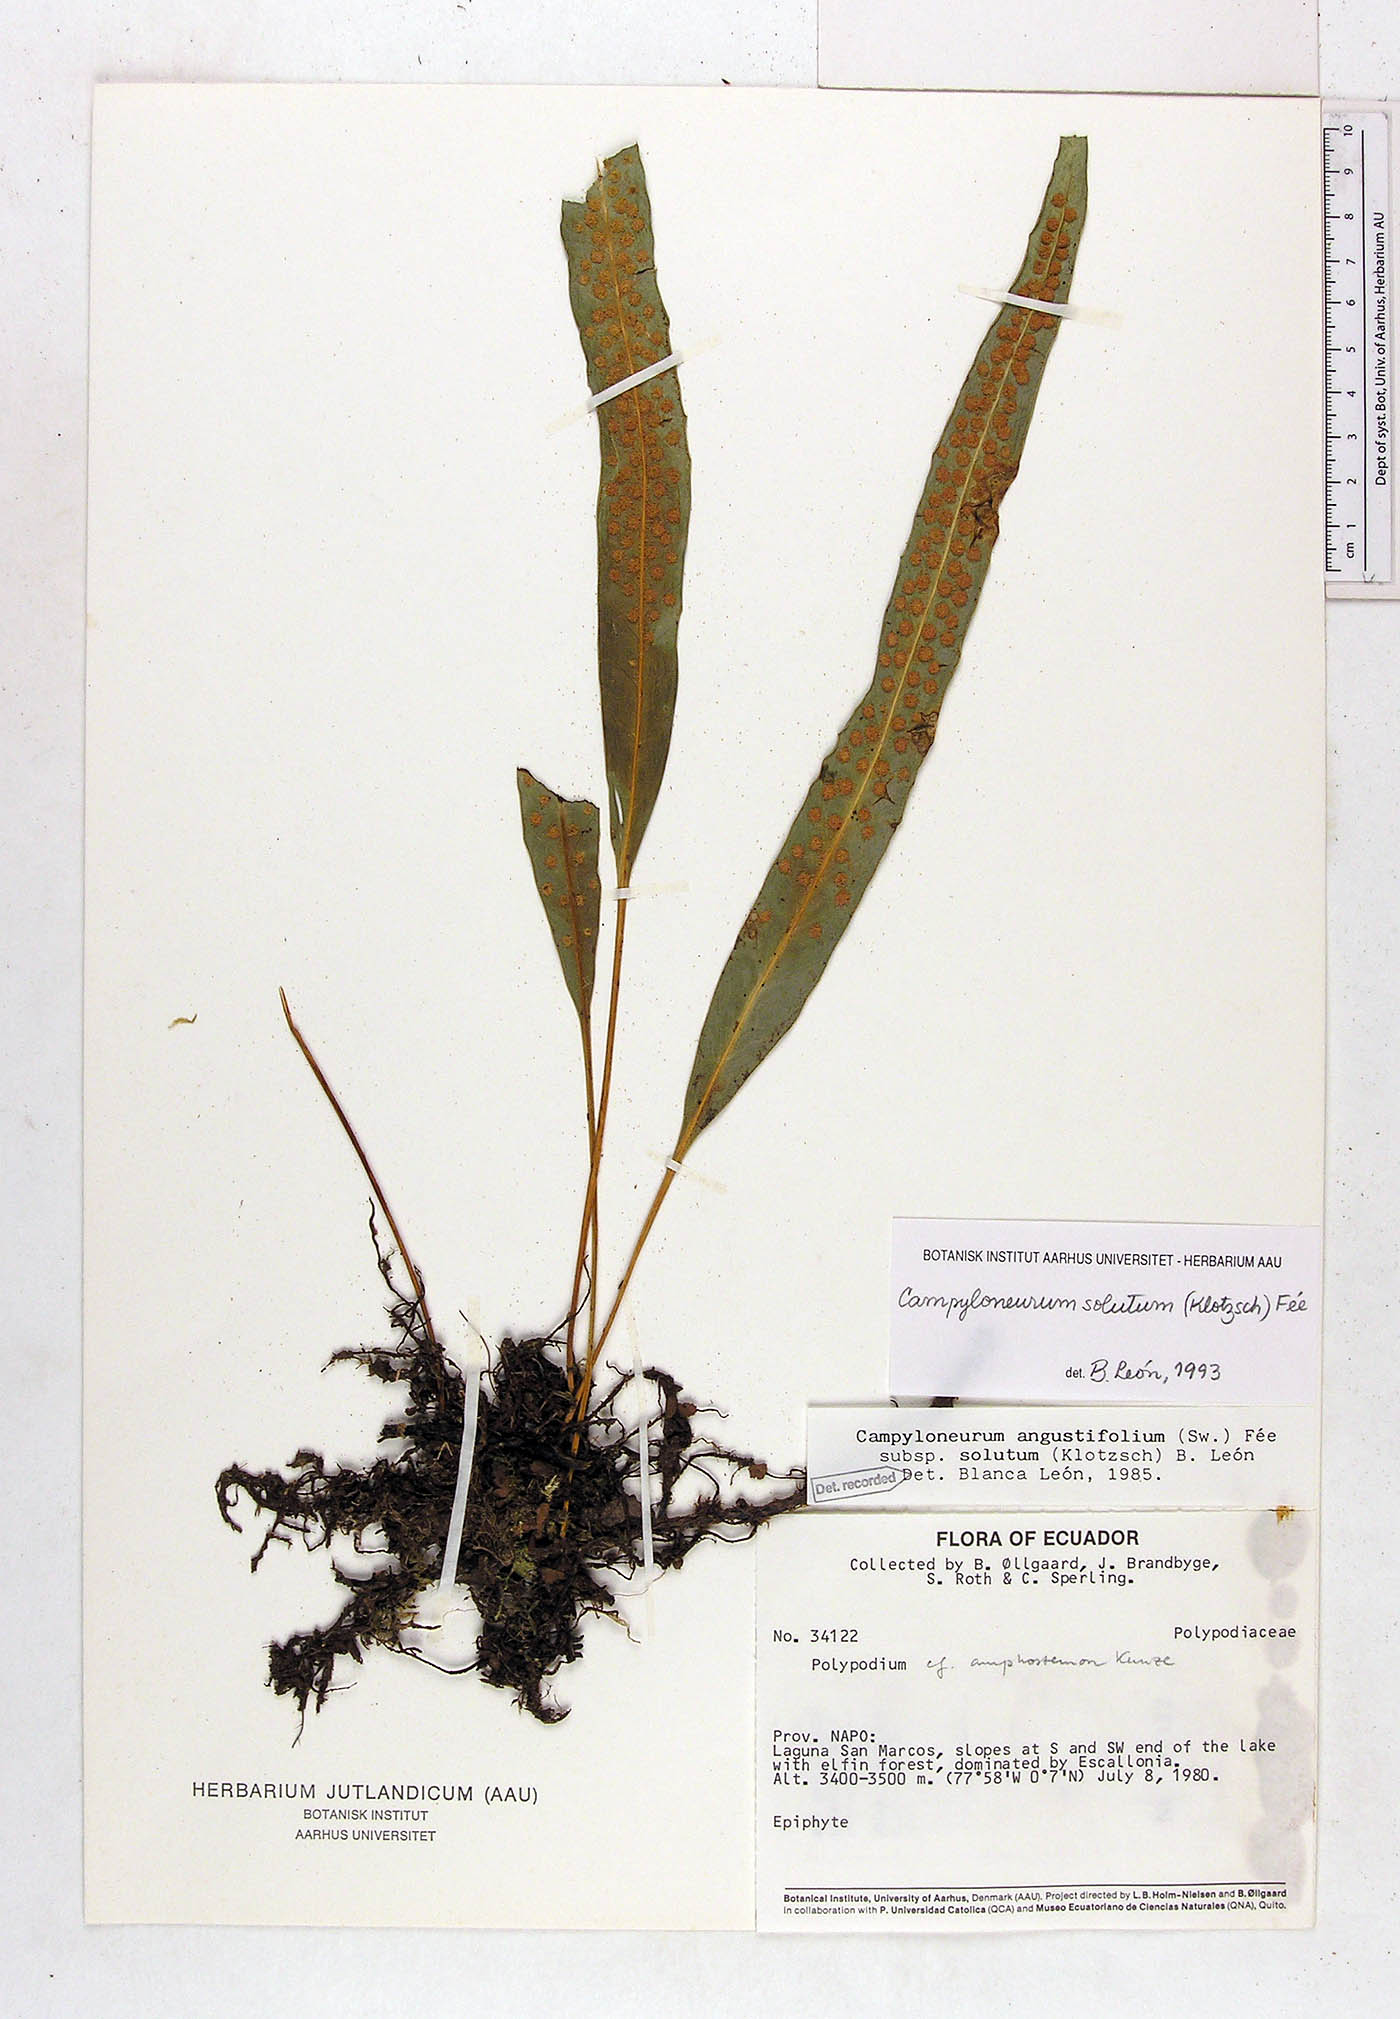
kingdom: Plantae
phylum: Tracheophyta
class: Polypodiopsida
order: Polypodiales
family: Polypodiaceae
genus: Campyloneurum
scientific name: Campyloneurum solutum
